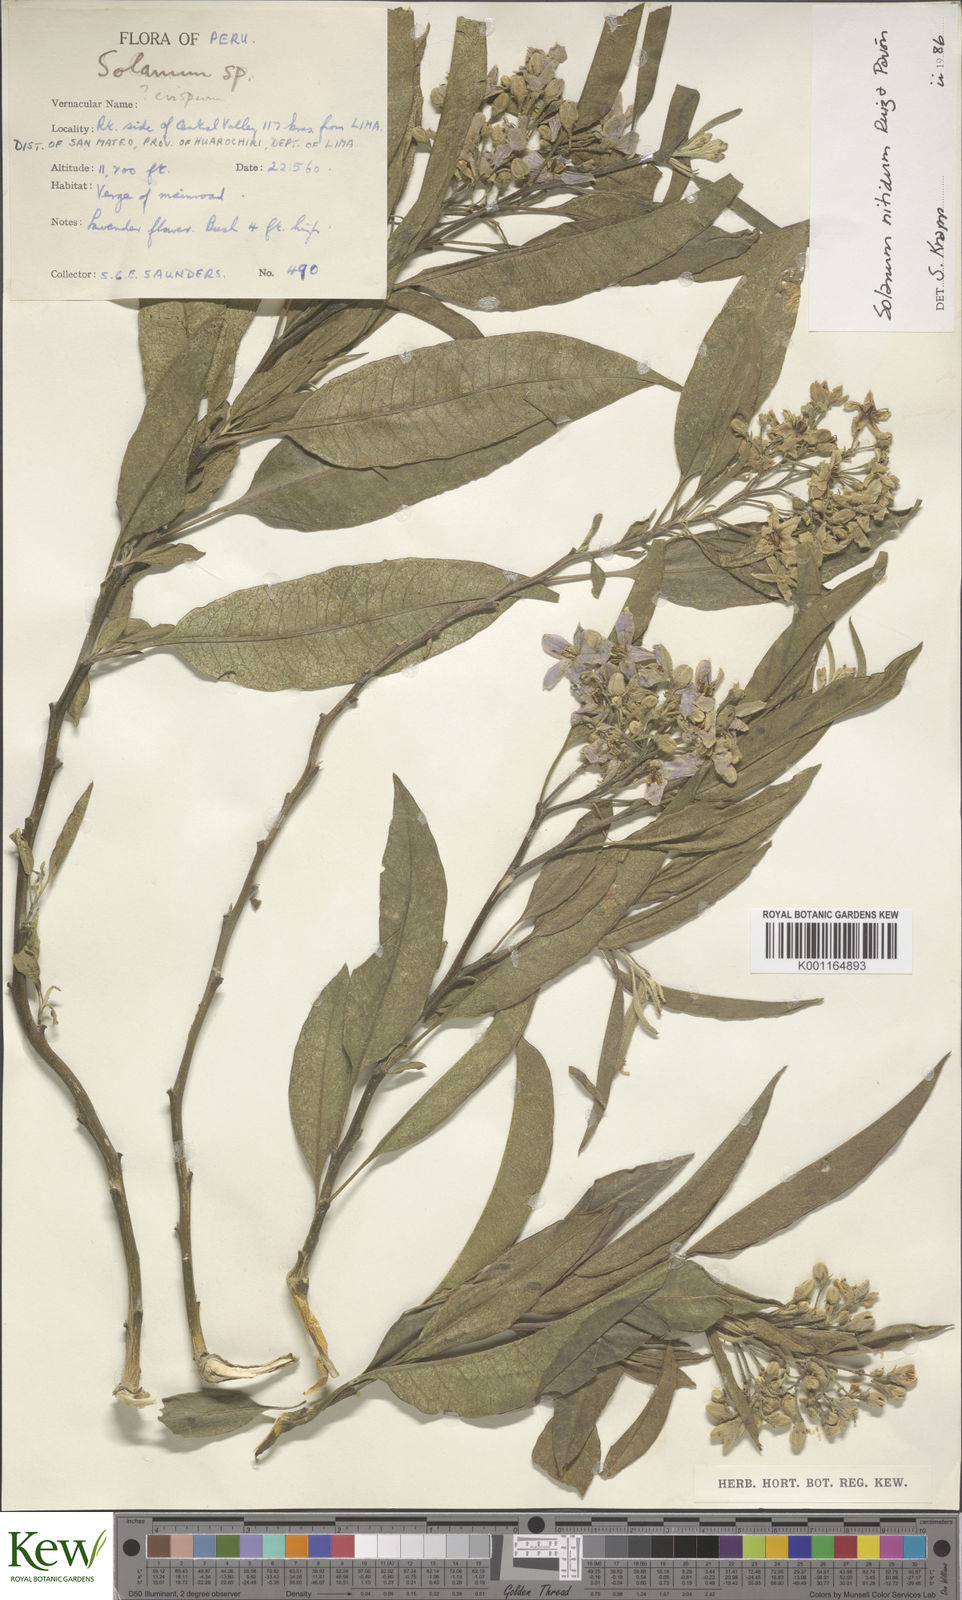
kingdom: Plantae
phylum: Tracheophyta
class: Magnoliopsida
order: Solanales
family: Solanaceae
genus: Solanum
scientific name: Solanum nitidum
